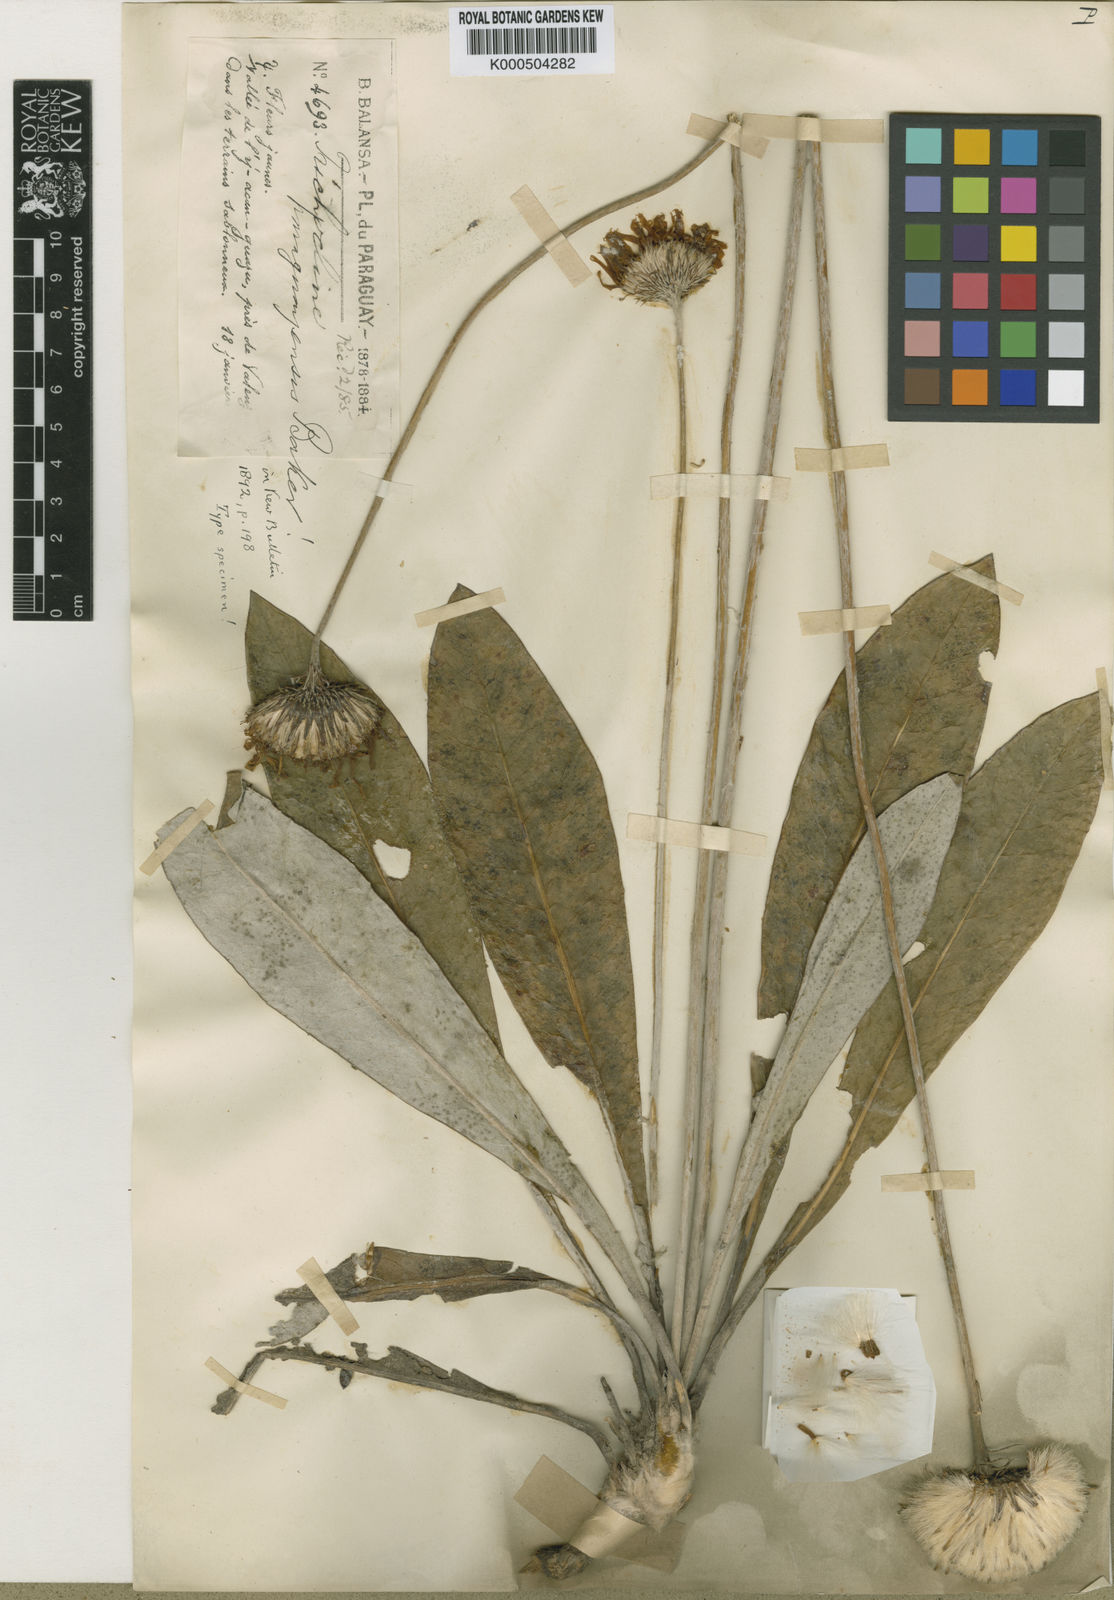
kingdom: Plantae
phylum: Tracheophyta
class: Magnoliopsida
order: Asterales
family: Asteraceae
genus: Trichocline
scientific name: Trichocline speciosa
